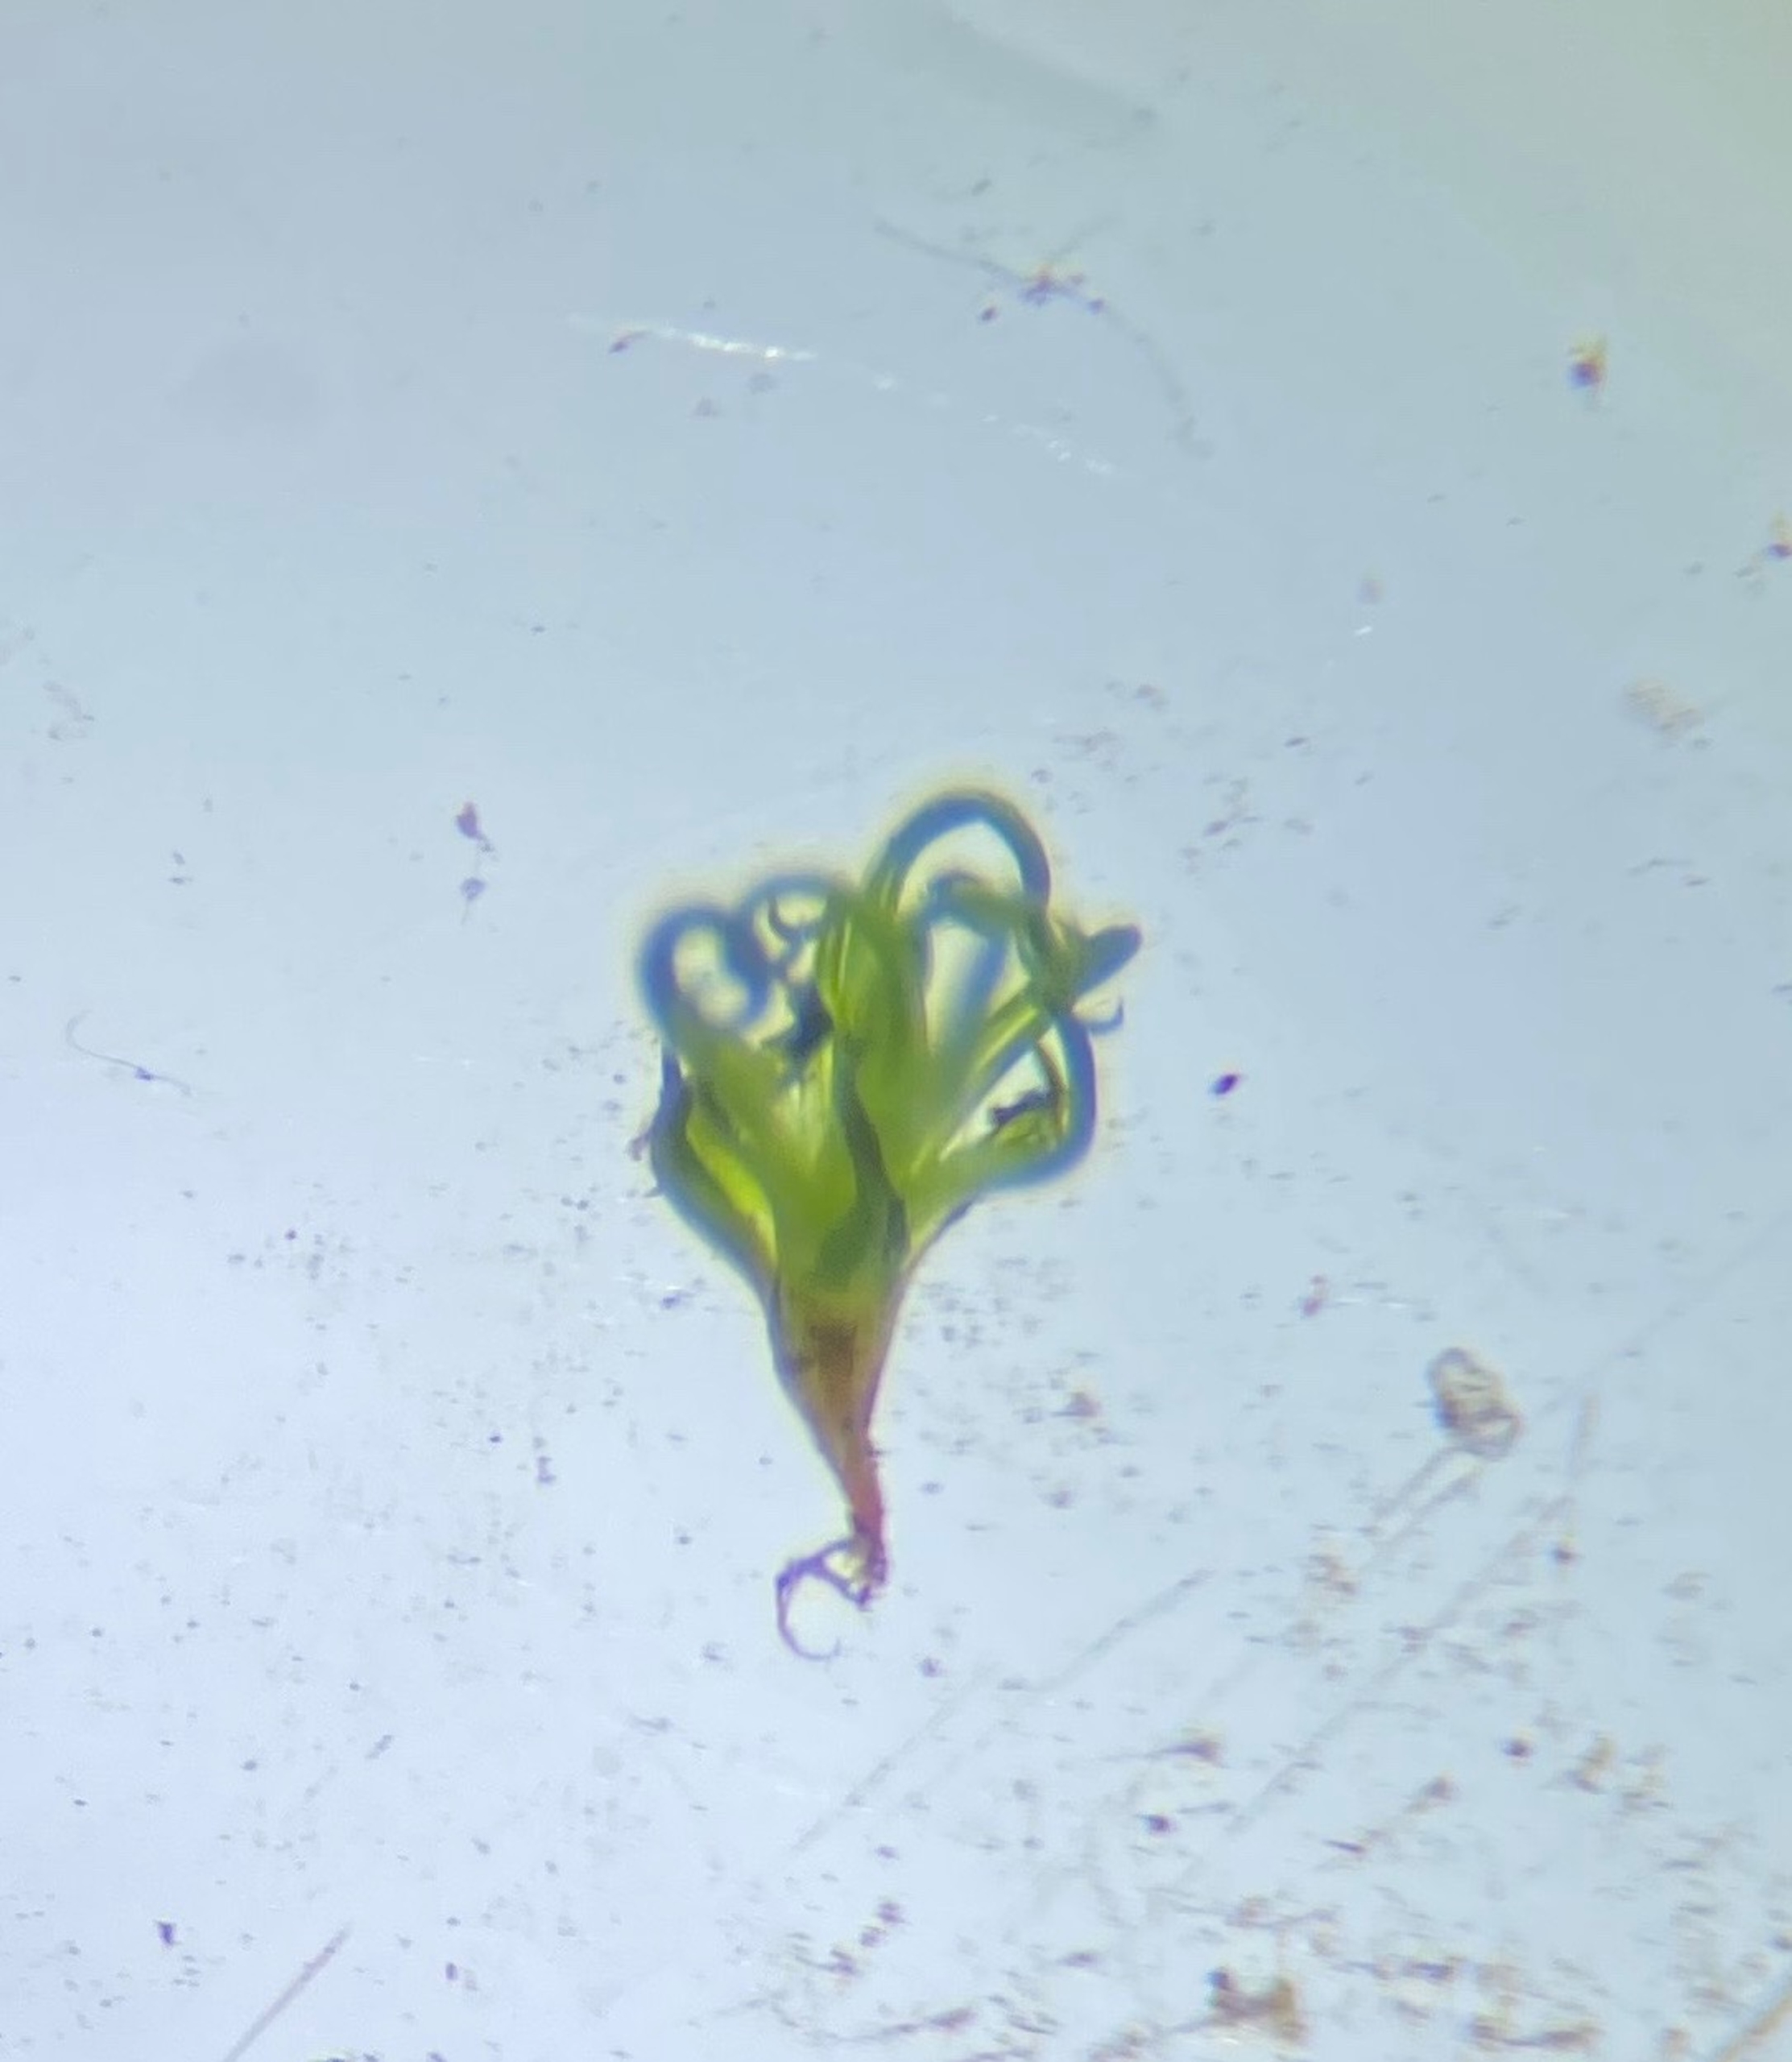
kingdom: Plantae
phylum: Bryophyta
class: Bryopsida
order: Pottiales
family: Pottiaceae
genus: Weissia
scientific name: Weissia controversa
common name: Smaltandet krusmos
